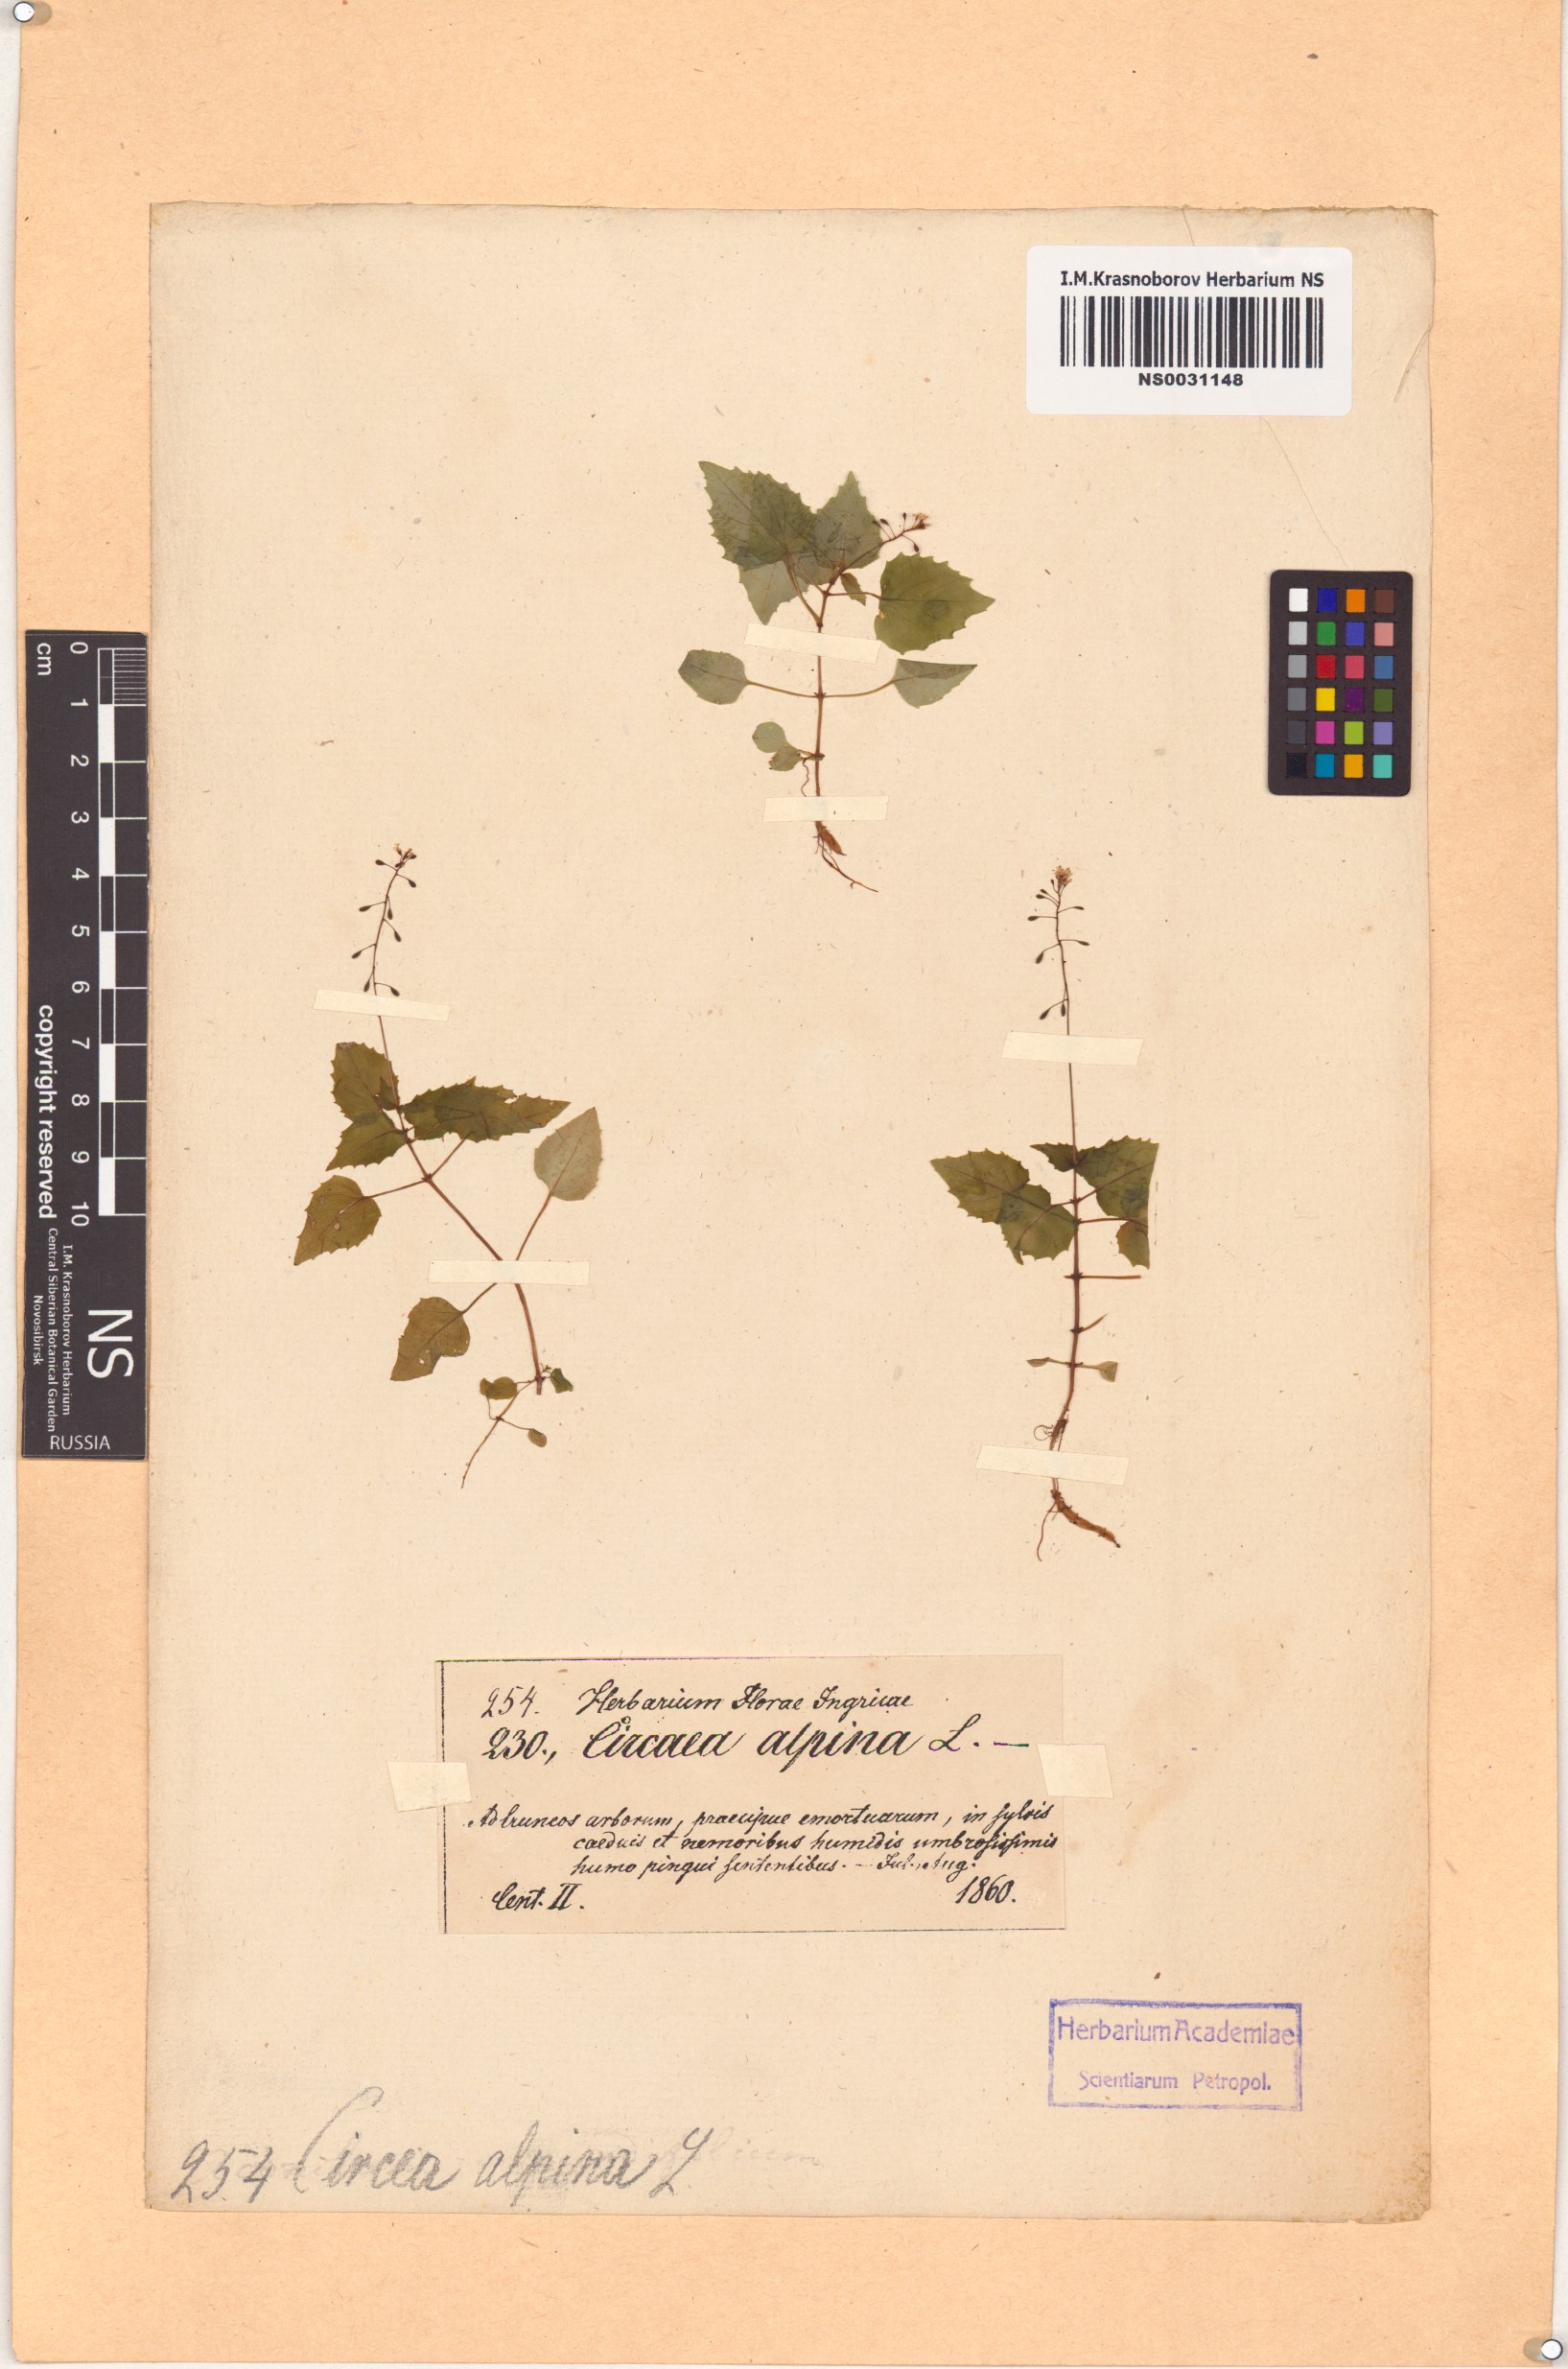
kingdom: Plantae
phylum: Tracheophyta
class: Magnoliopsida
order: Myrtales
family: Onagraceae
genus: Circaea
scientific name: Circaea alpina
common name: Alpine enchanter's-nightshade
